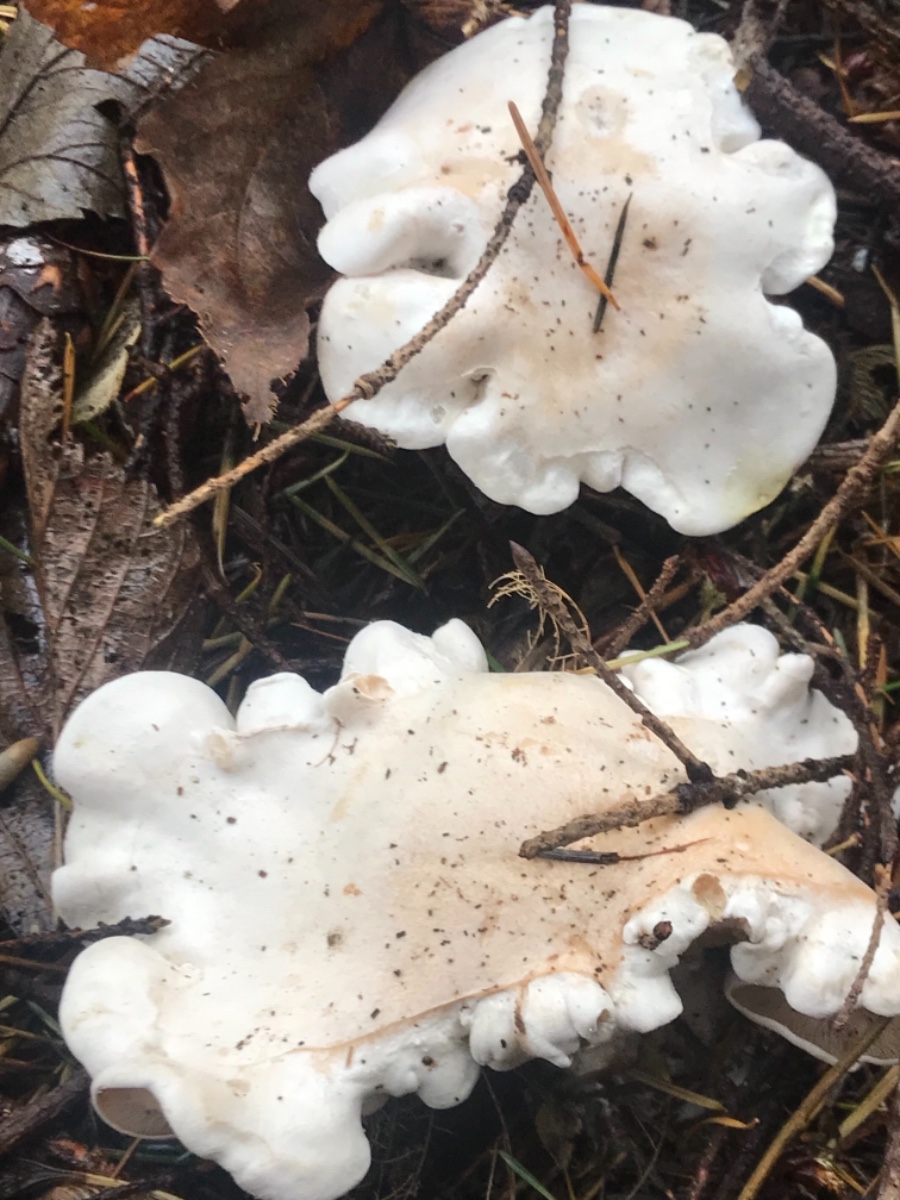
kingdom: Fungi
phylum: Basidiomycota
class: Agaricomycetes
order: Agaricales
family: Entolomataceae
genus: Clitopilus
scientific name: Clitopilus prunulus
